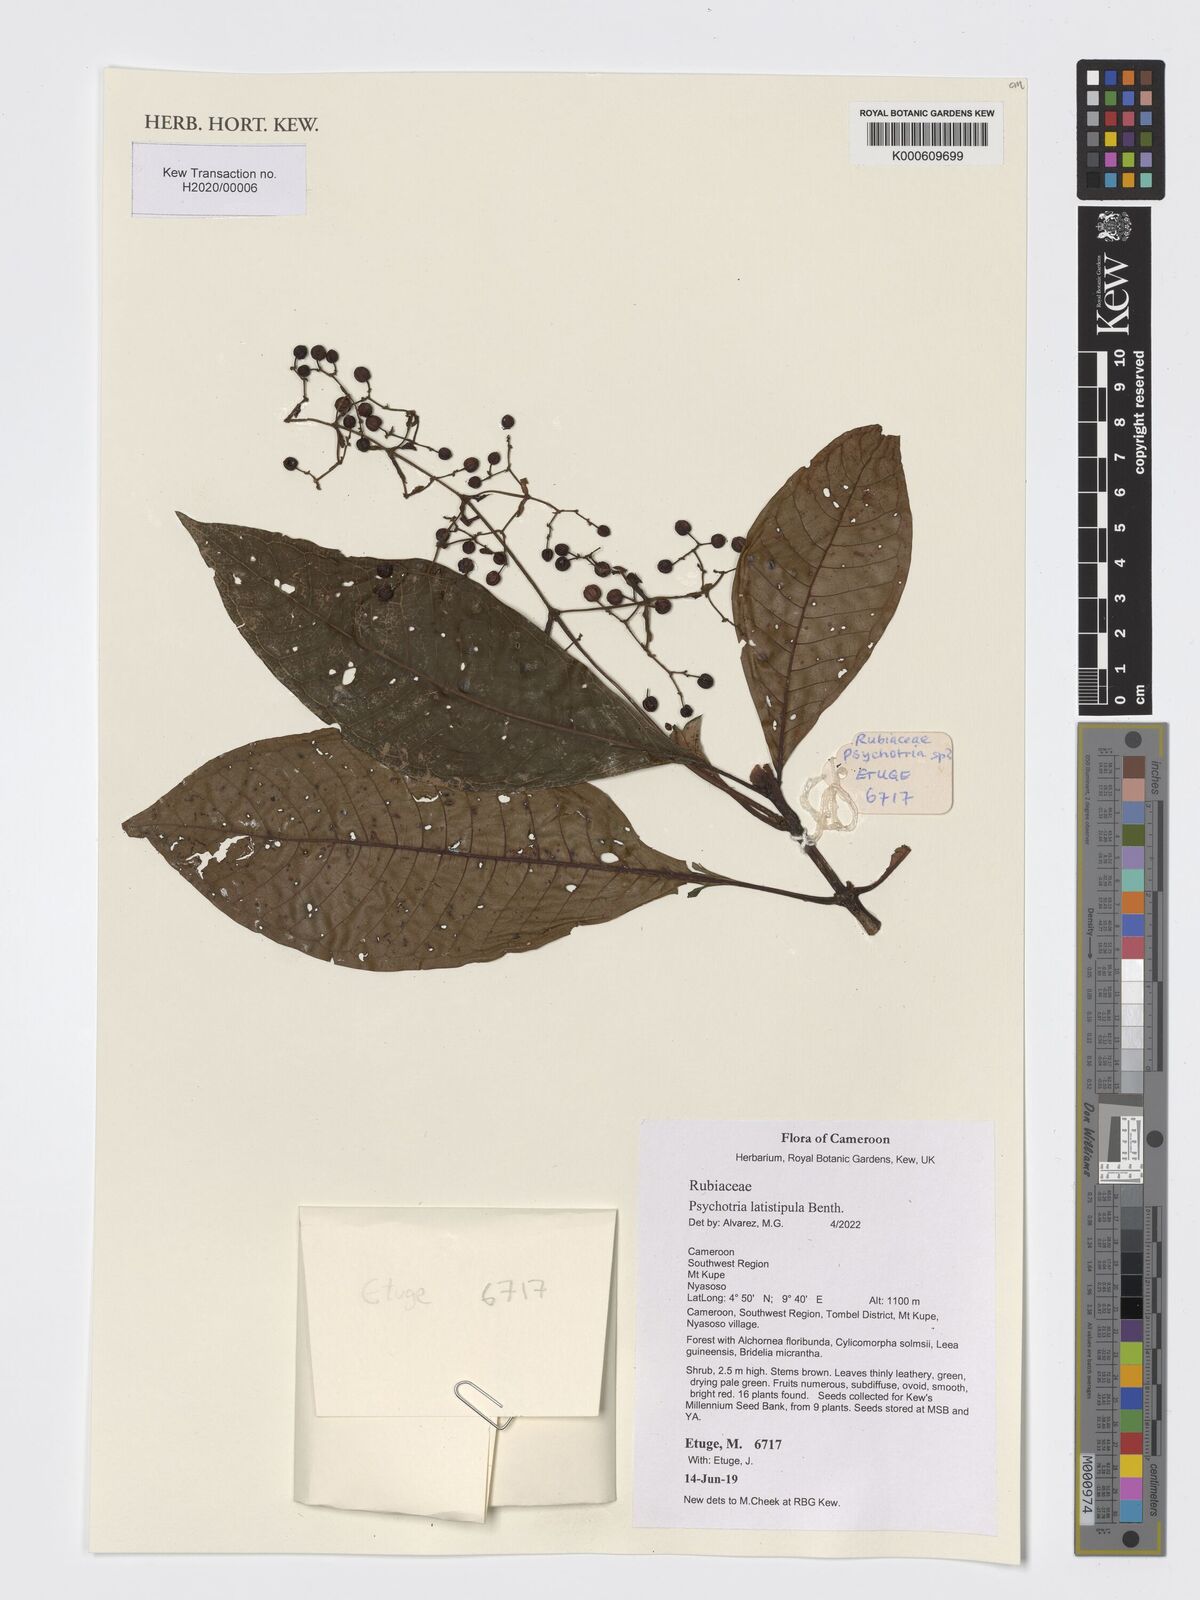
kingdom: Plantae
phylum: Tracheophyta
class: Magnoliopsida
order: Gentianales
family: Rubiaceae
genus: Psychotria
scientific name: Psychotria latistipula
